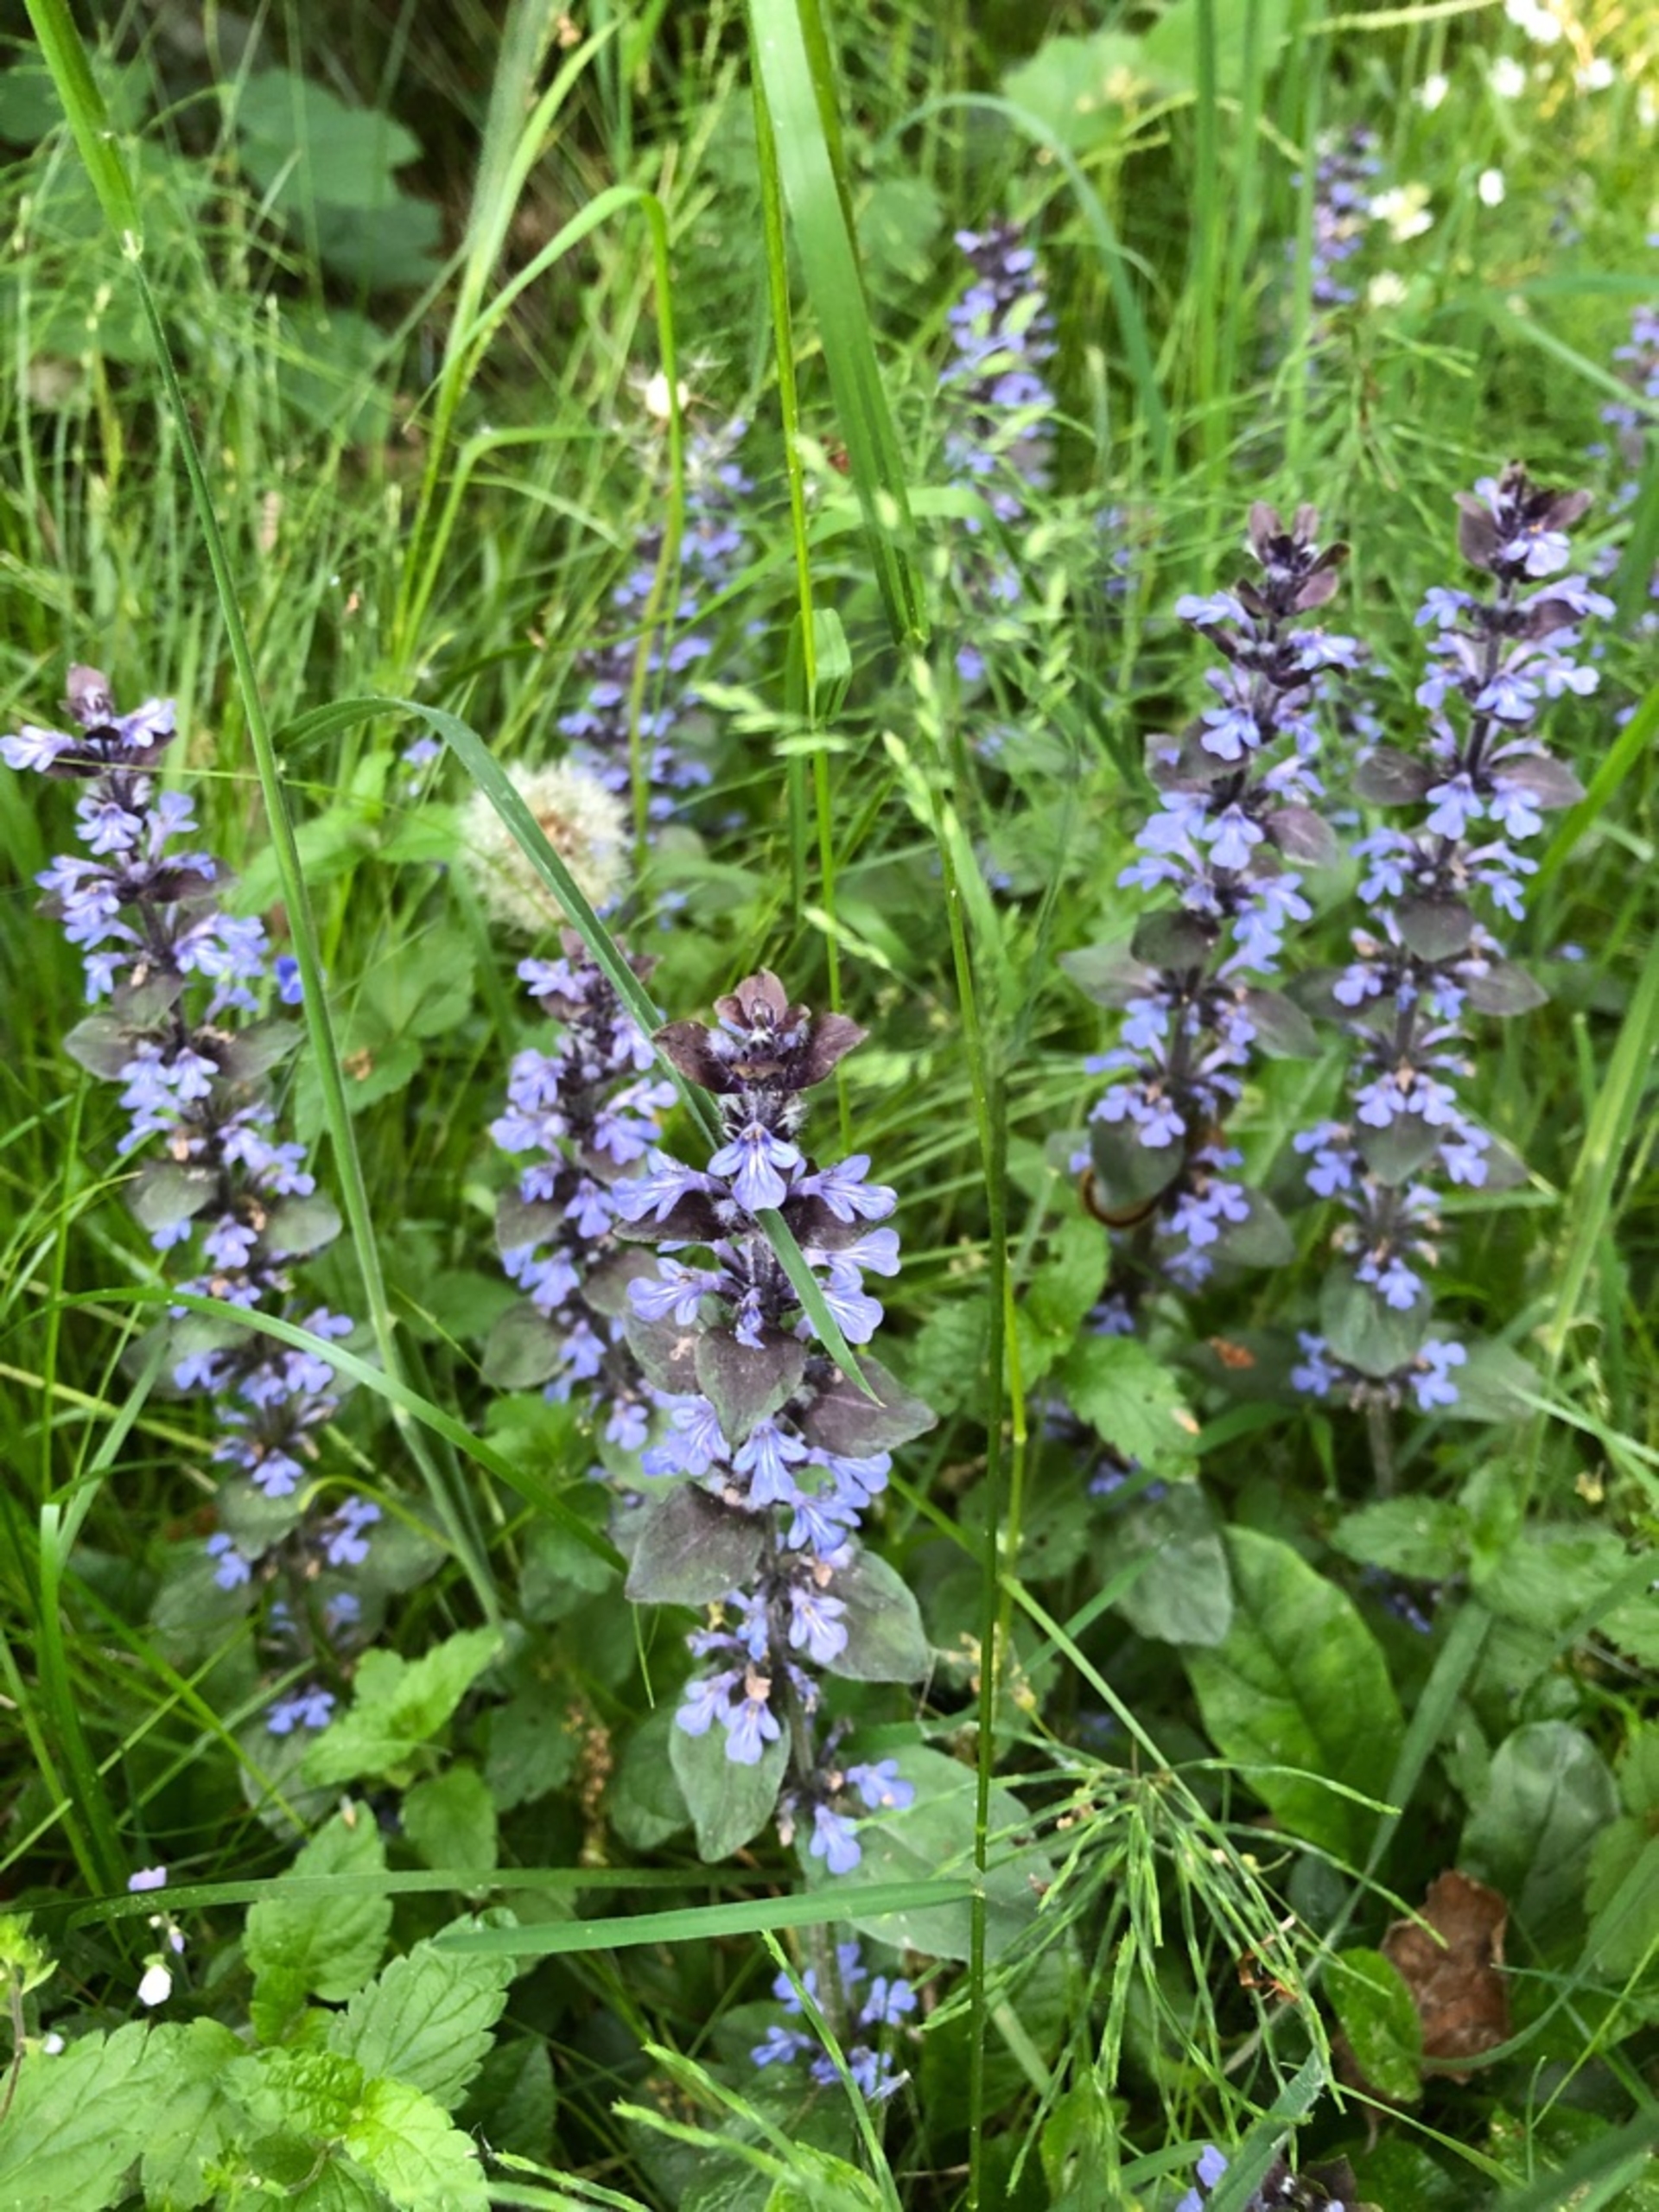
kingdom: Plantae
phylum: Tracheophyta
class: Magnoliopsida
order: Lamiales
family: Lamiaceae
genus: Ajuga
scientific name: Ajuga reptans
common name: Krybende læbeløs
